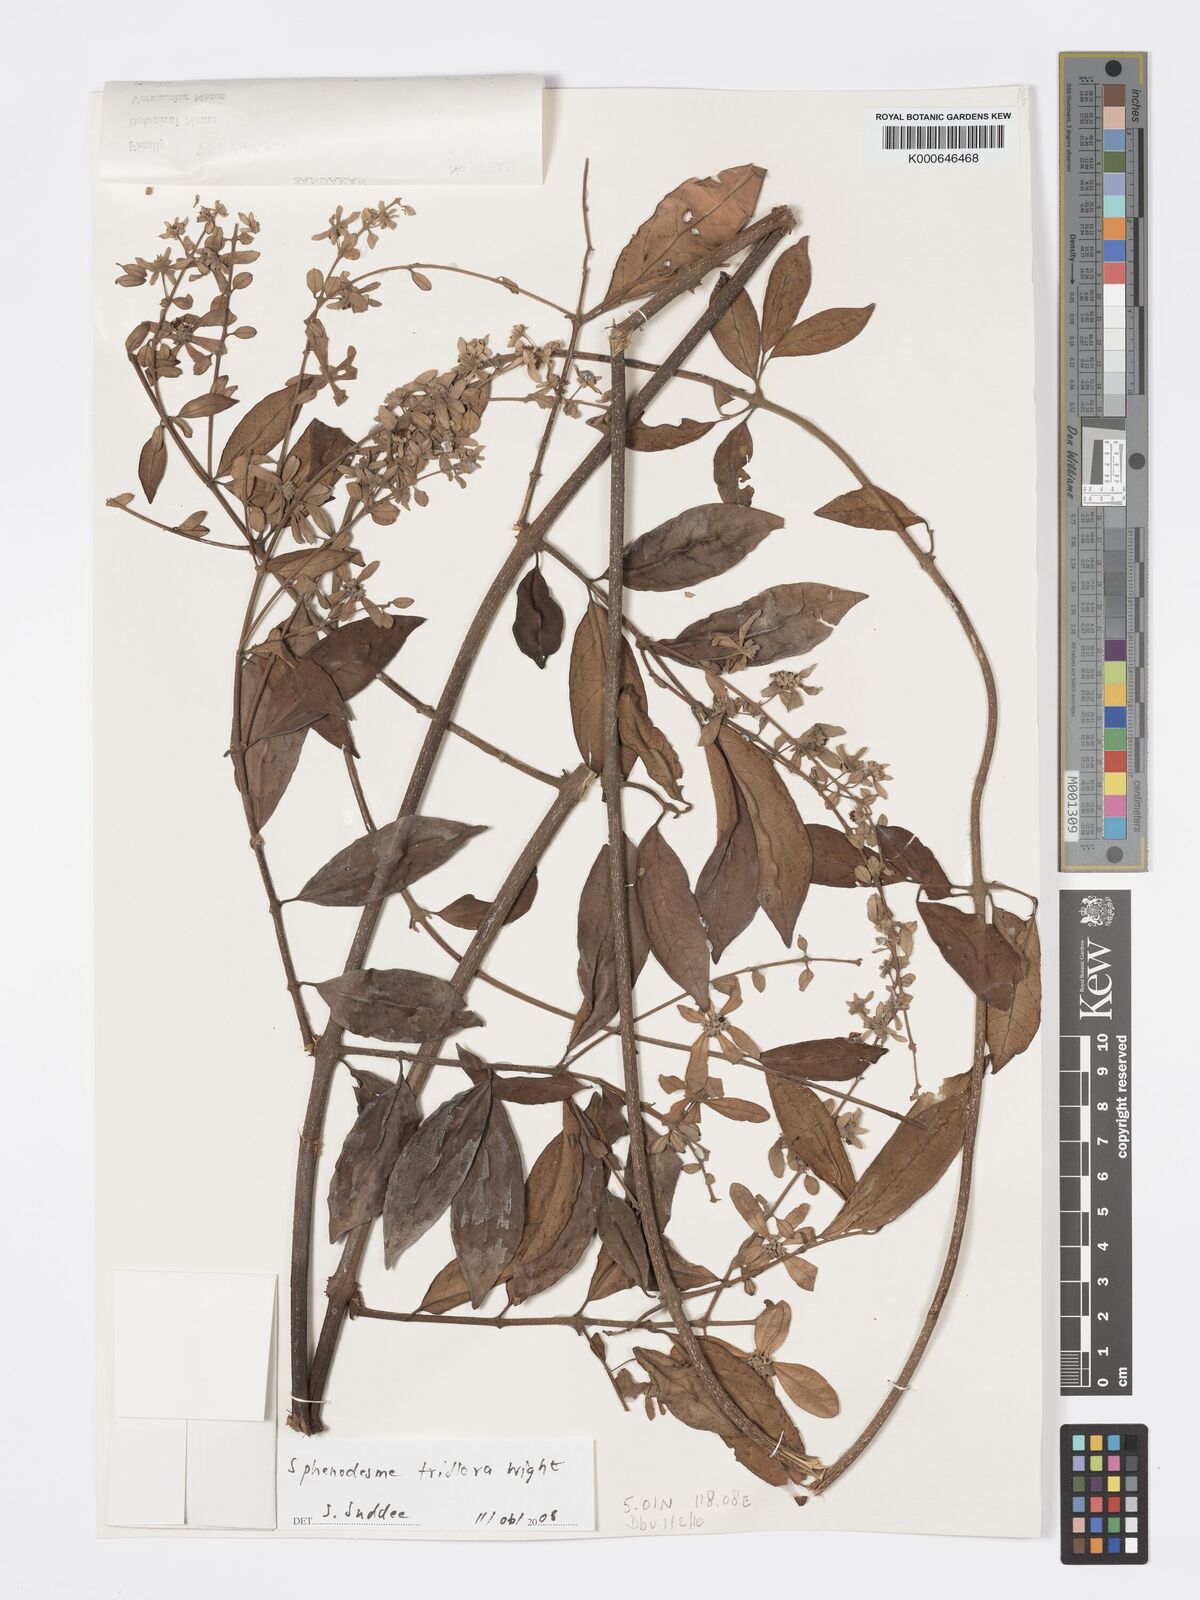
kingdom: Plantae
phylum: Tracheophyta
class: Magnoliopsida
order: Lamiales
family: Lamiaceae
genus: Sphenodesme
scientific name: Sphenodesme triflora
